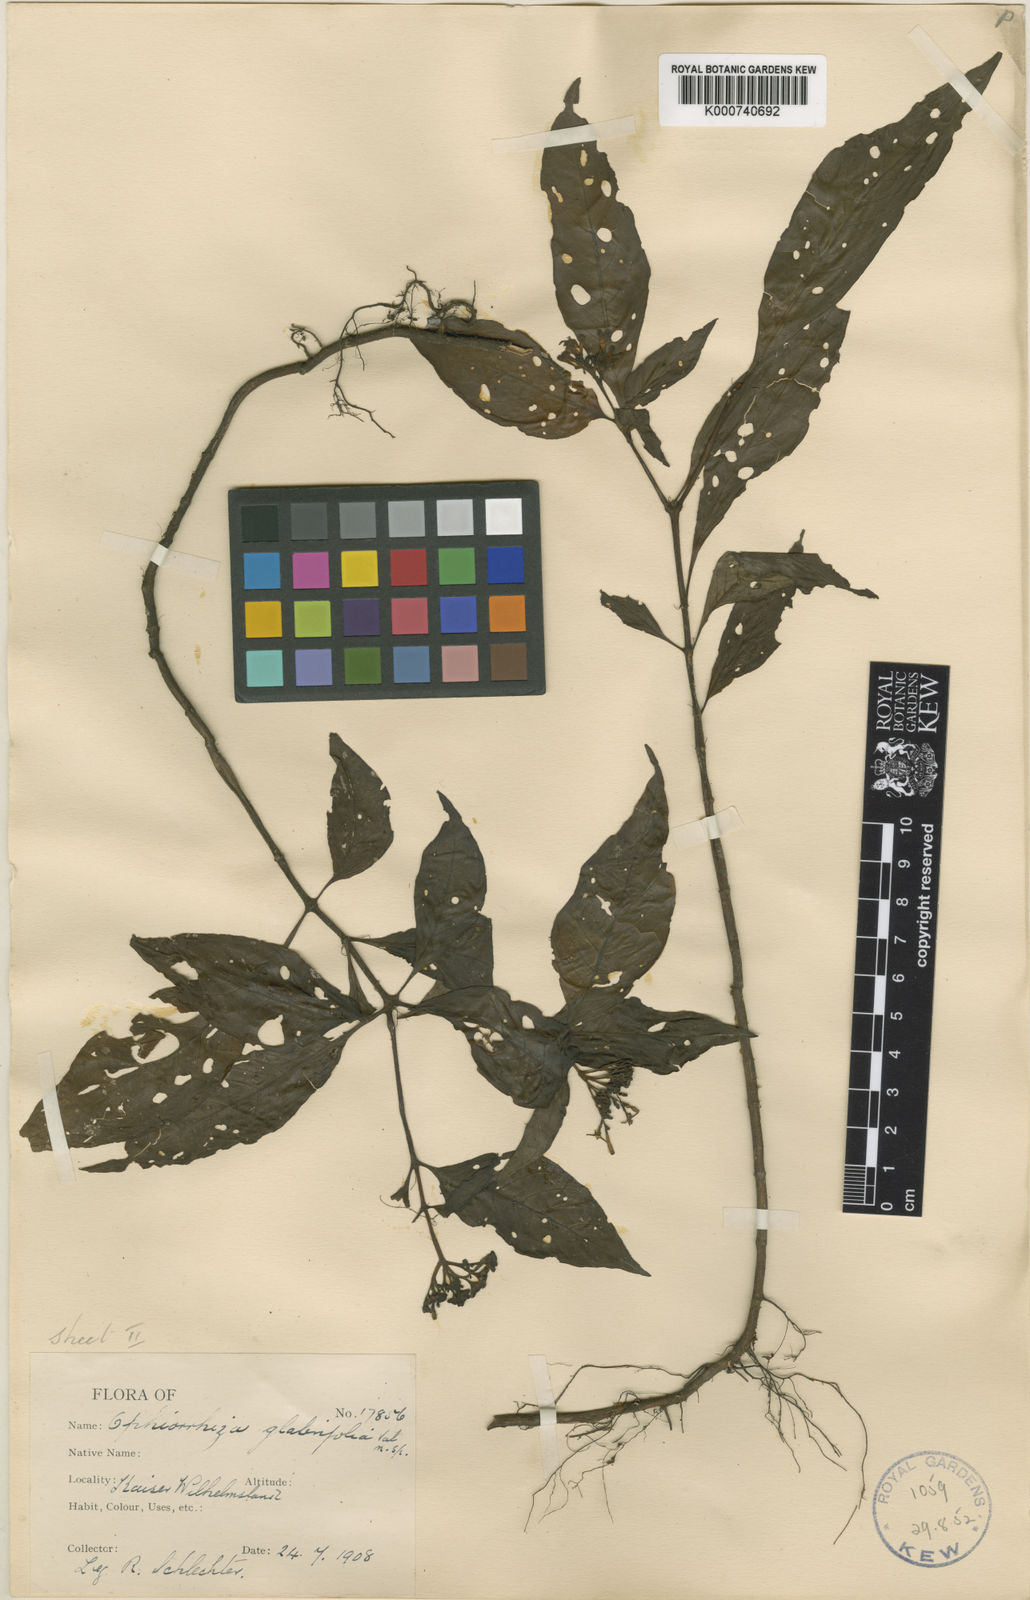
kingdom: Plantae
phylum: Tracheophyta
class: Magnoliopsida
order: Gentianales
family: Rubiaceae
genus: Ophiorrhiza
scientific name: Ophiorrhiza glabrifolia
